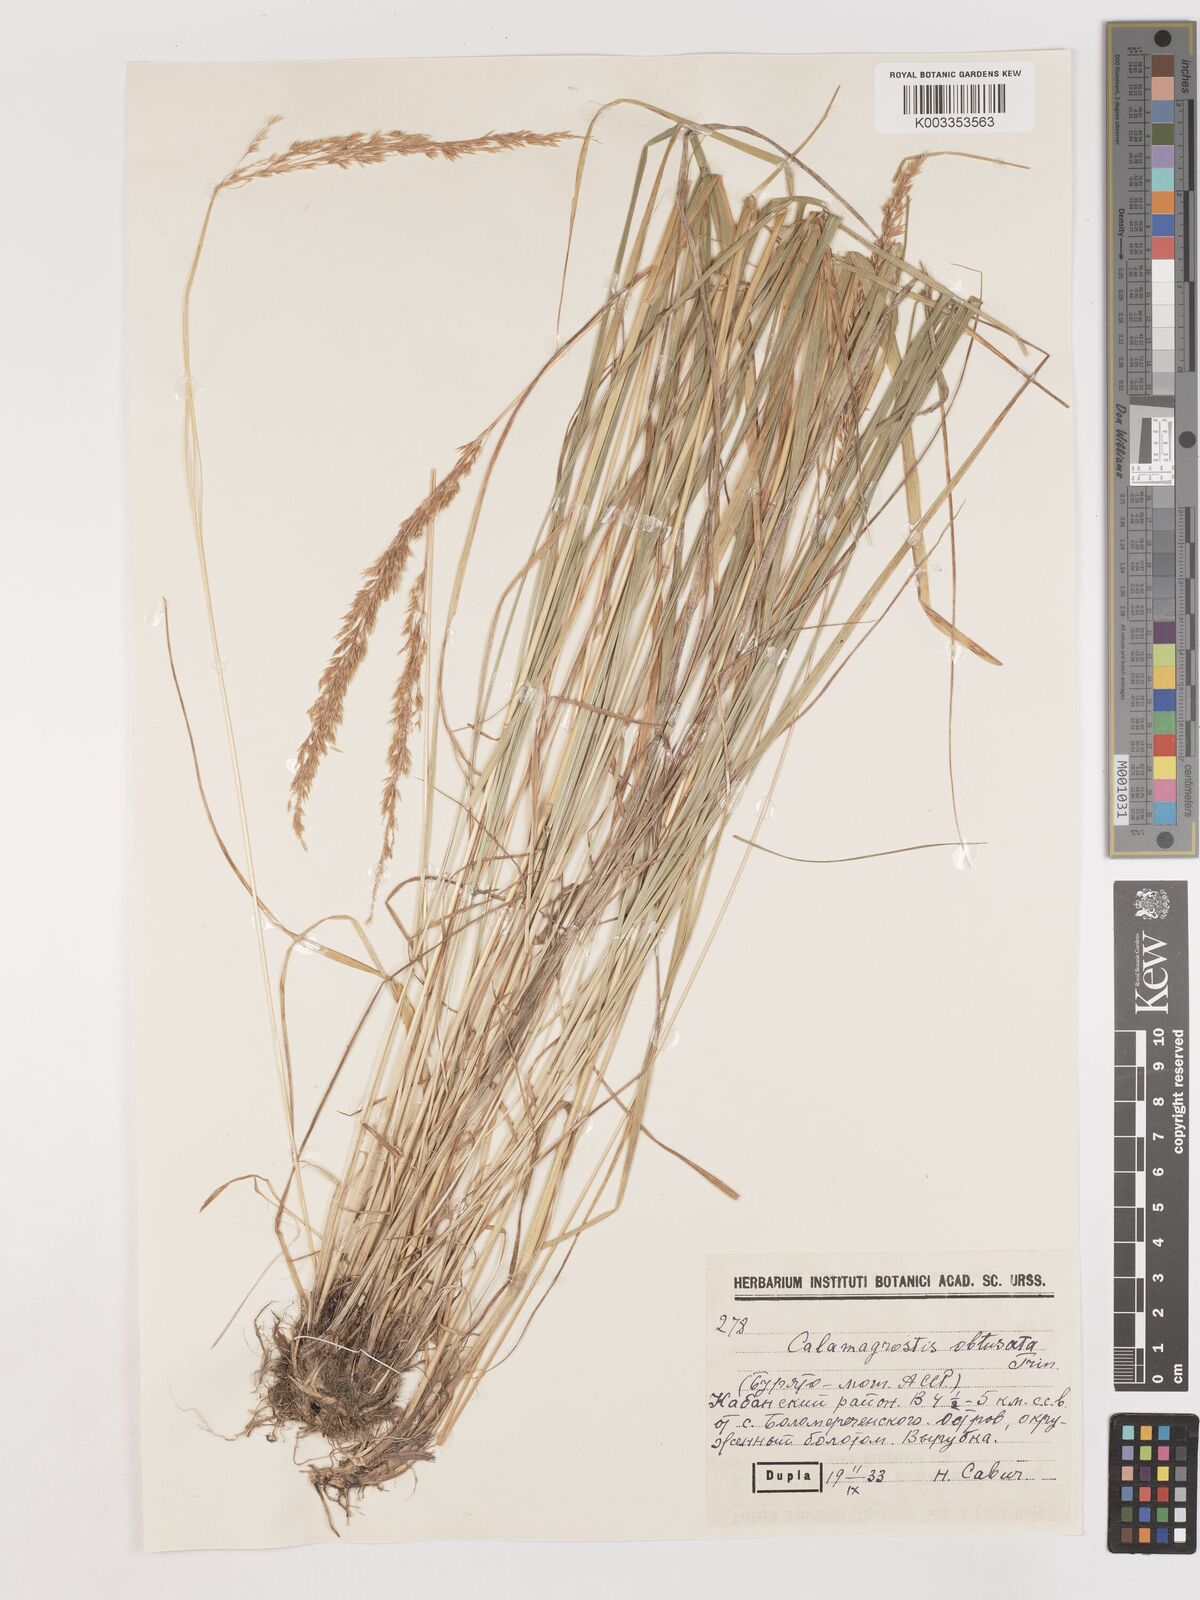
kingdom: Plantae
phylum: Tracheophyta
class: Liliopsida
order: Poales
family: Poaceae
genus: Cinnagrostis
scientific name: Cinnagrostis spicigera
